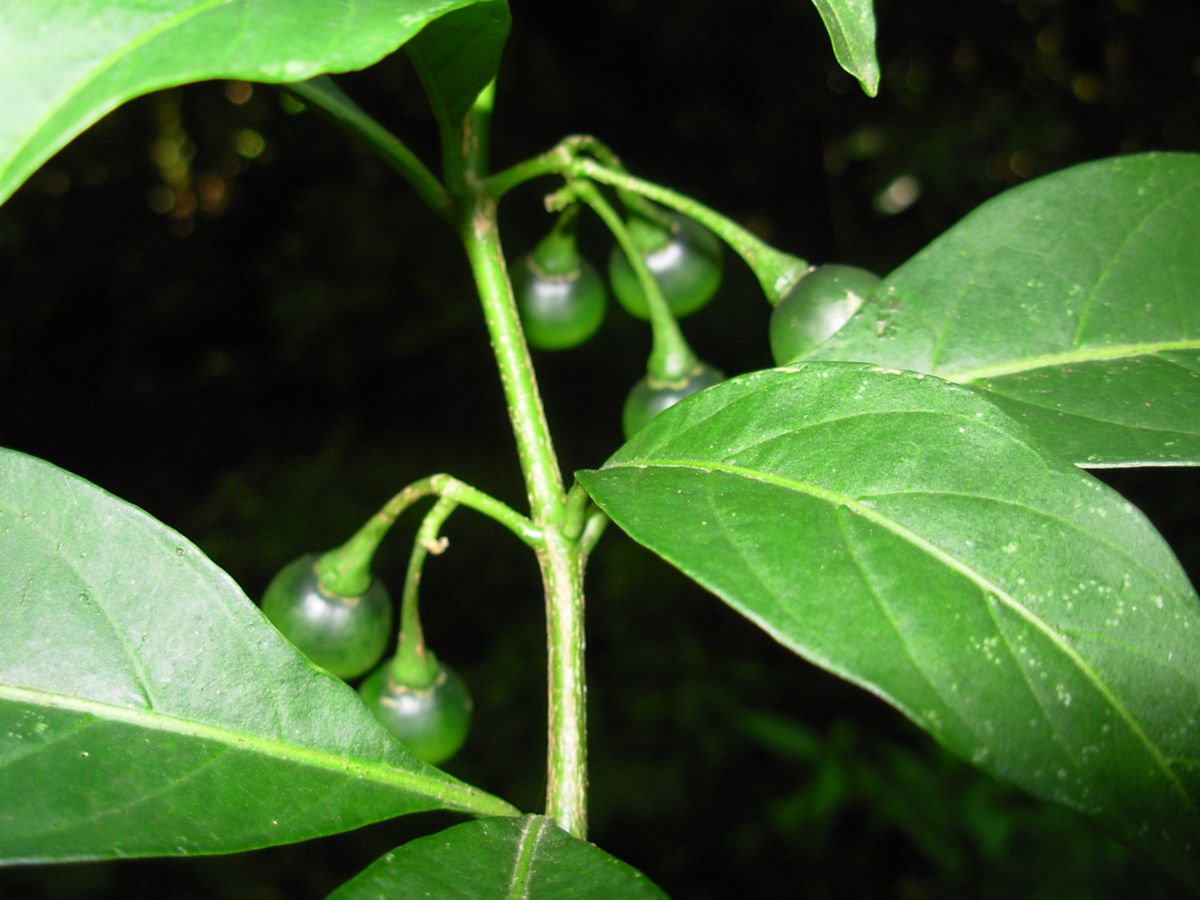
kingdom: Plantae
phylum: Tracheophyta
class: Magnoliopsida
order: Solanales
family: Solanaceae
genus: Solanum
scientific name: Solanum aphyodendron
